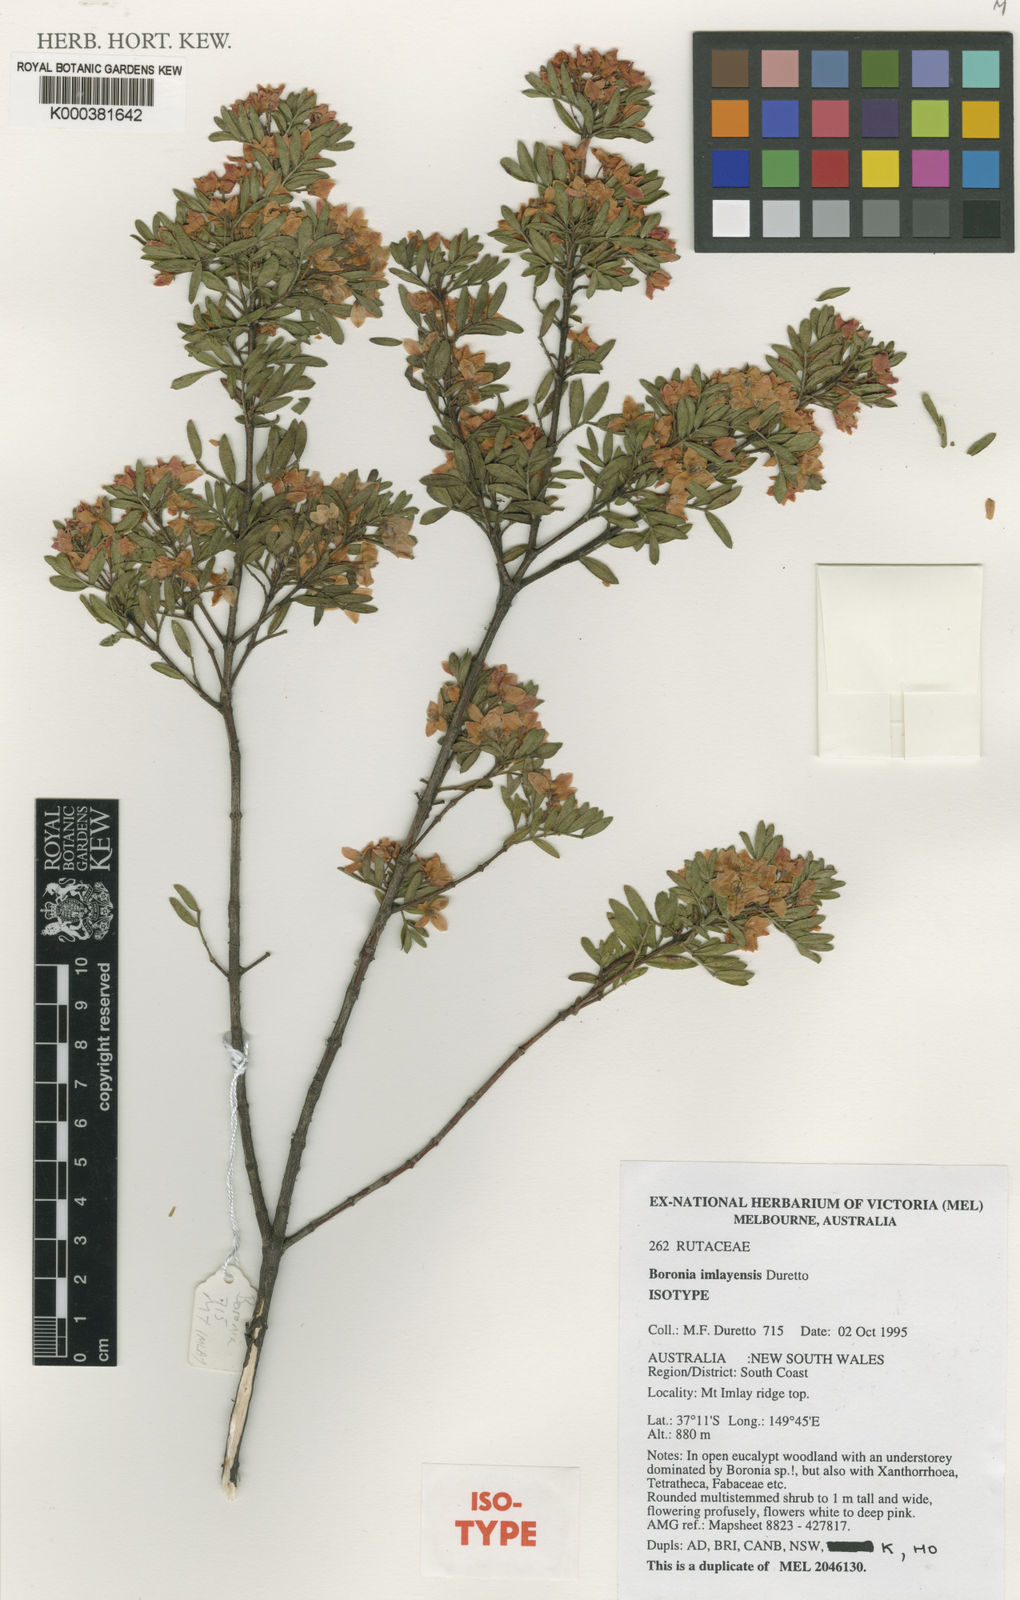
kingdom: Plantae
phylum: Tracheophyta
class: Magnoliopsida
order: Sapindales
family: Rutaceae
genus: Boronia
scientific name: Boronia imlayensis
